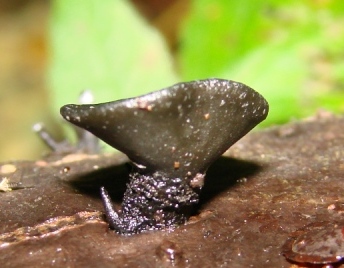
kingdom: Fungi
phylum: Ascomycota
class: Leotiomycetes
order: Helotiales
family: Bulgariaceae
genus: Holwaya
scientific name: Holwaya mucida
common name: lindeskive
